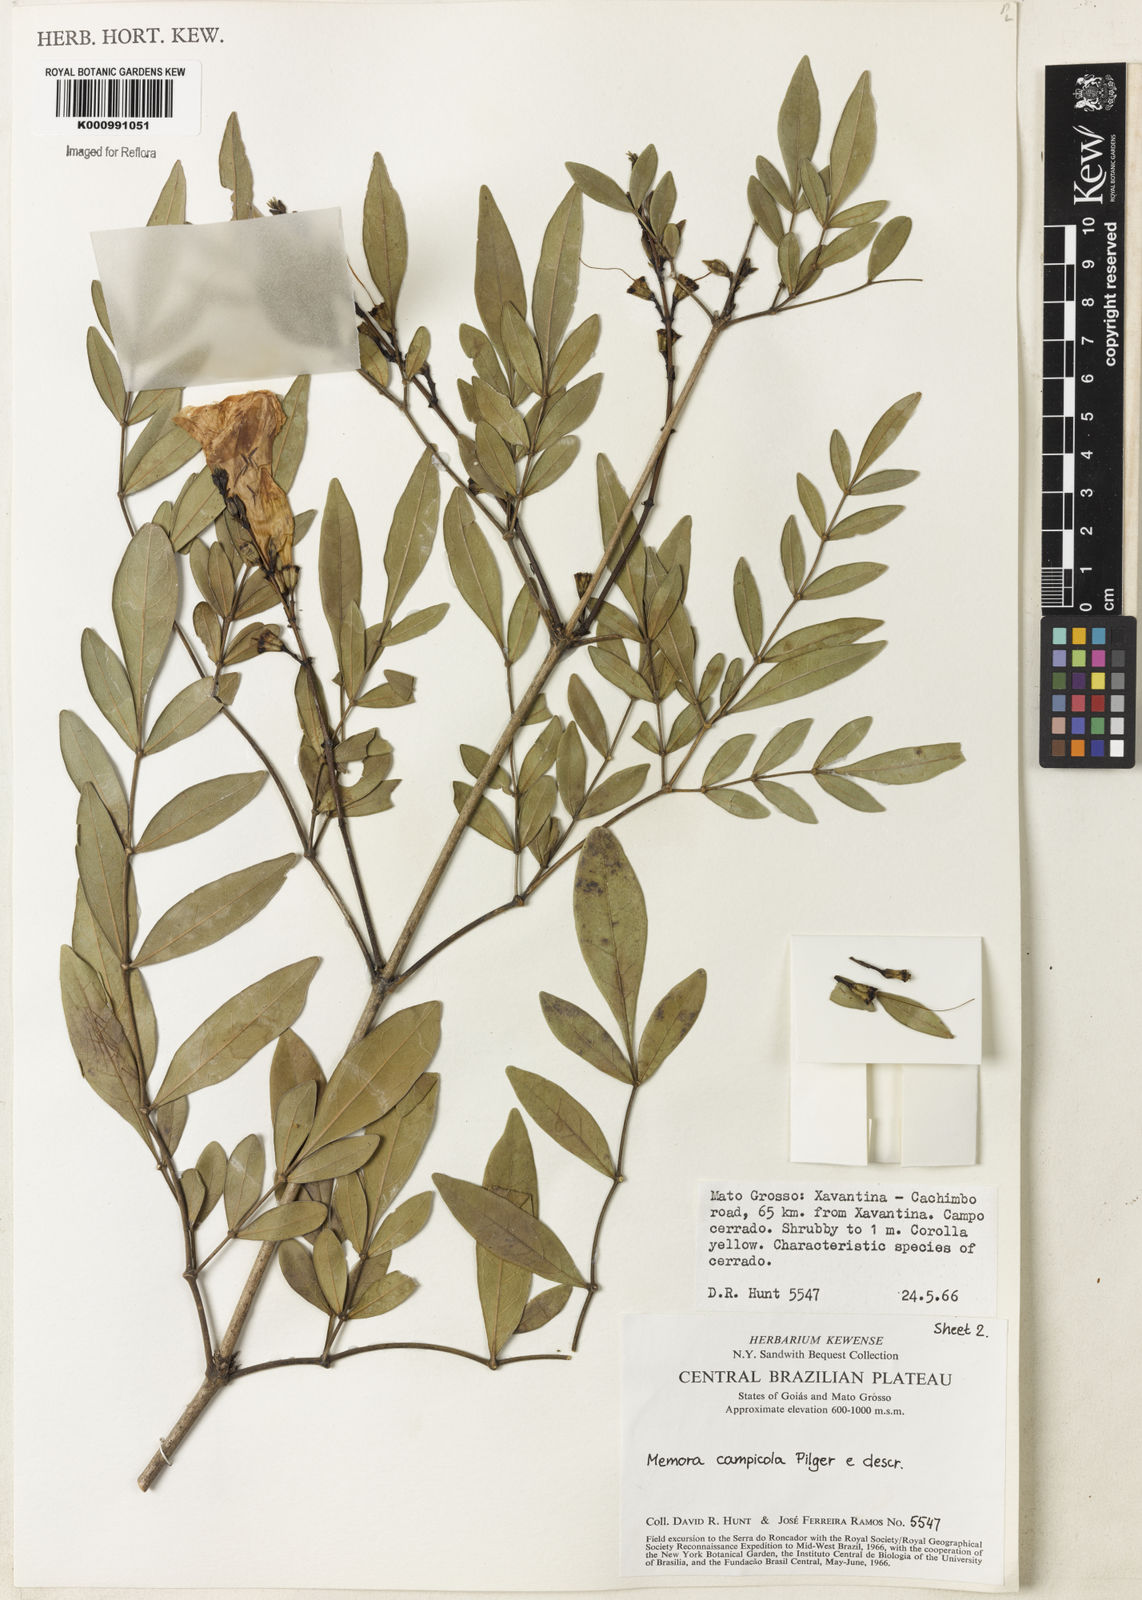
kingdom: Plantae
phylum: Tracheophyta
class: Magnoliopsida
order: Lamiales
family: Bignoniaceae
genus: Adenocalymma
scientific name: Adenocalymma campicola
